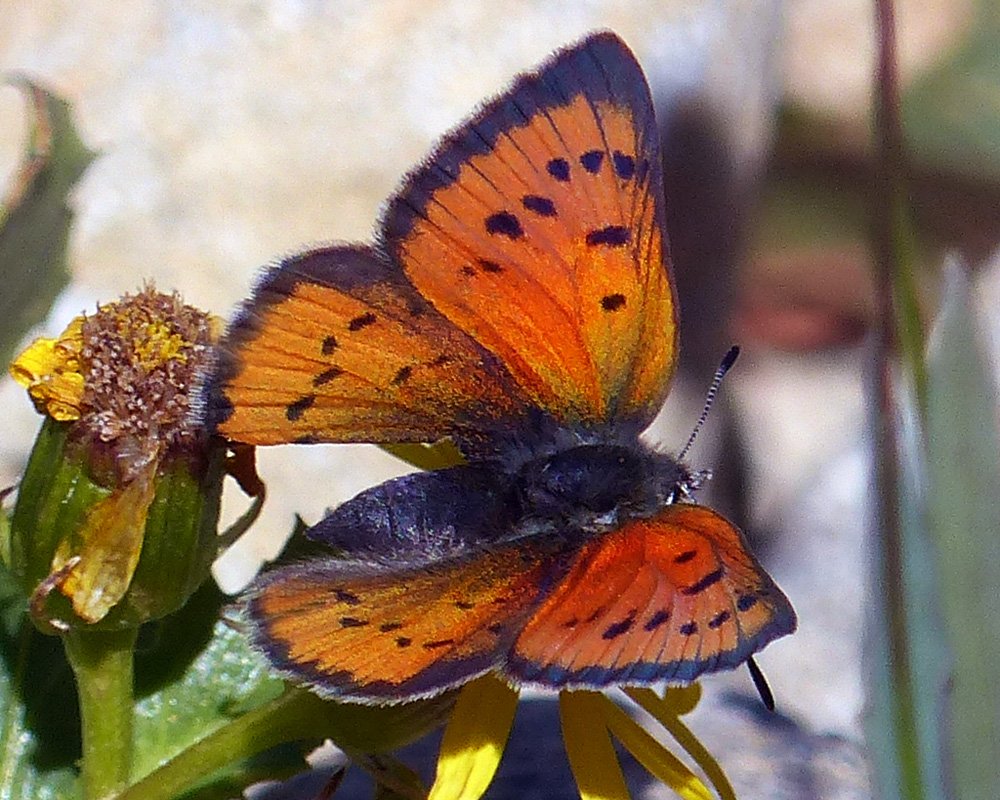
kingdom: Animalia
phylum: Arthropoda
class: Insecta
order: Lepidoptera
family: Lycaenidae
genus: Lycaena
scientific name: Lycaena cupreus
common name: Lustrous Copper
